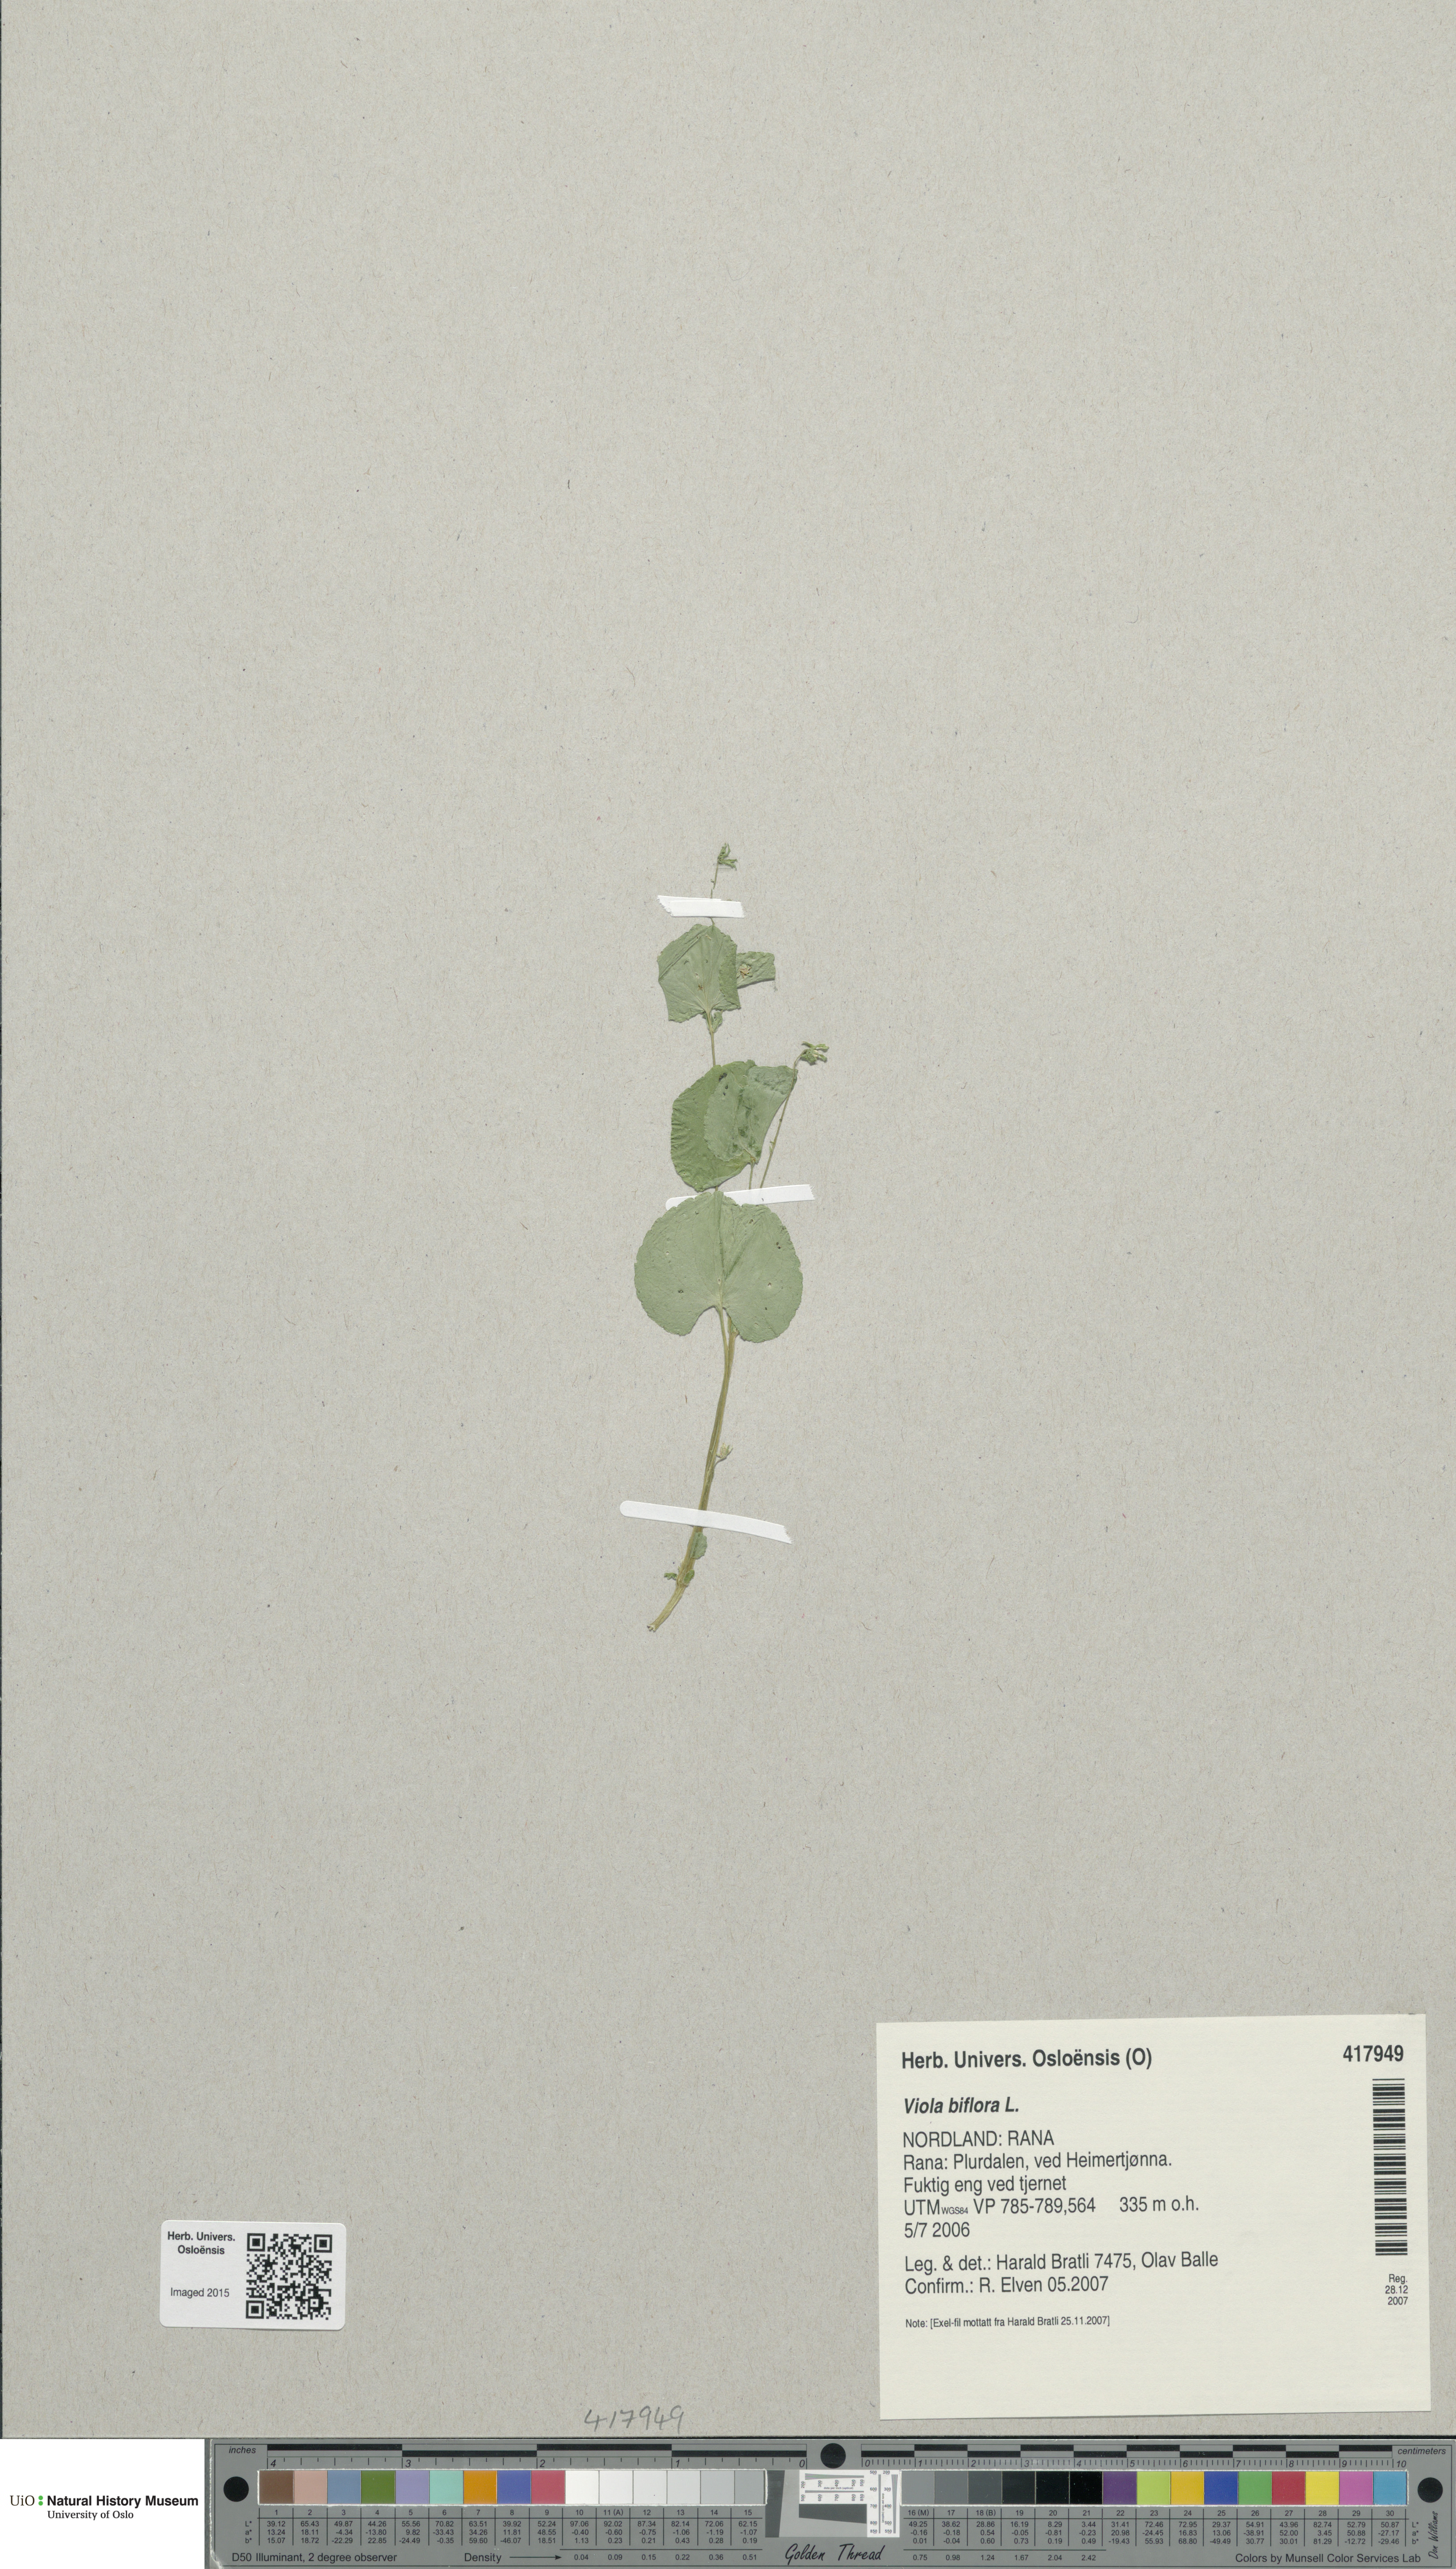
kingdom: Plantae
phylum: Tracheophyta
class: Magnoliopsida
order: Malpighiales
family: Violaceae
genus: Viola
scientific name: Viola biflora
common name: Alpine yellow violet
